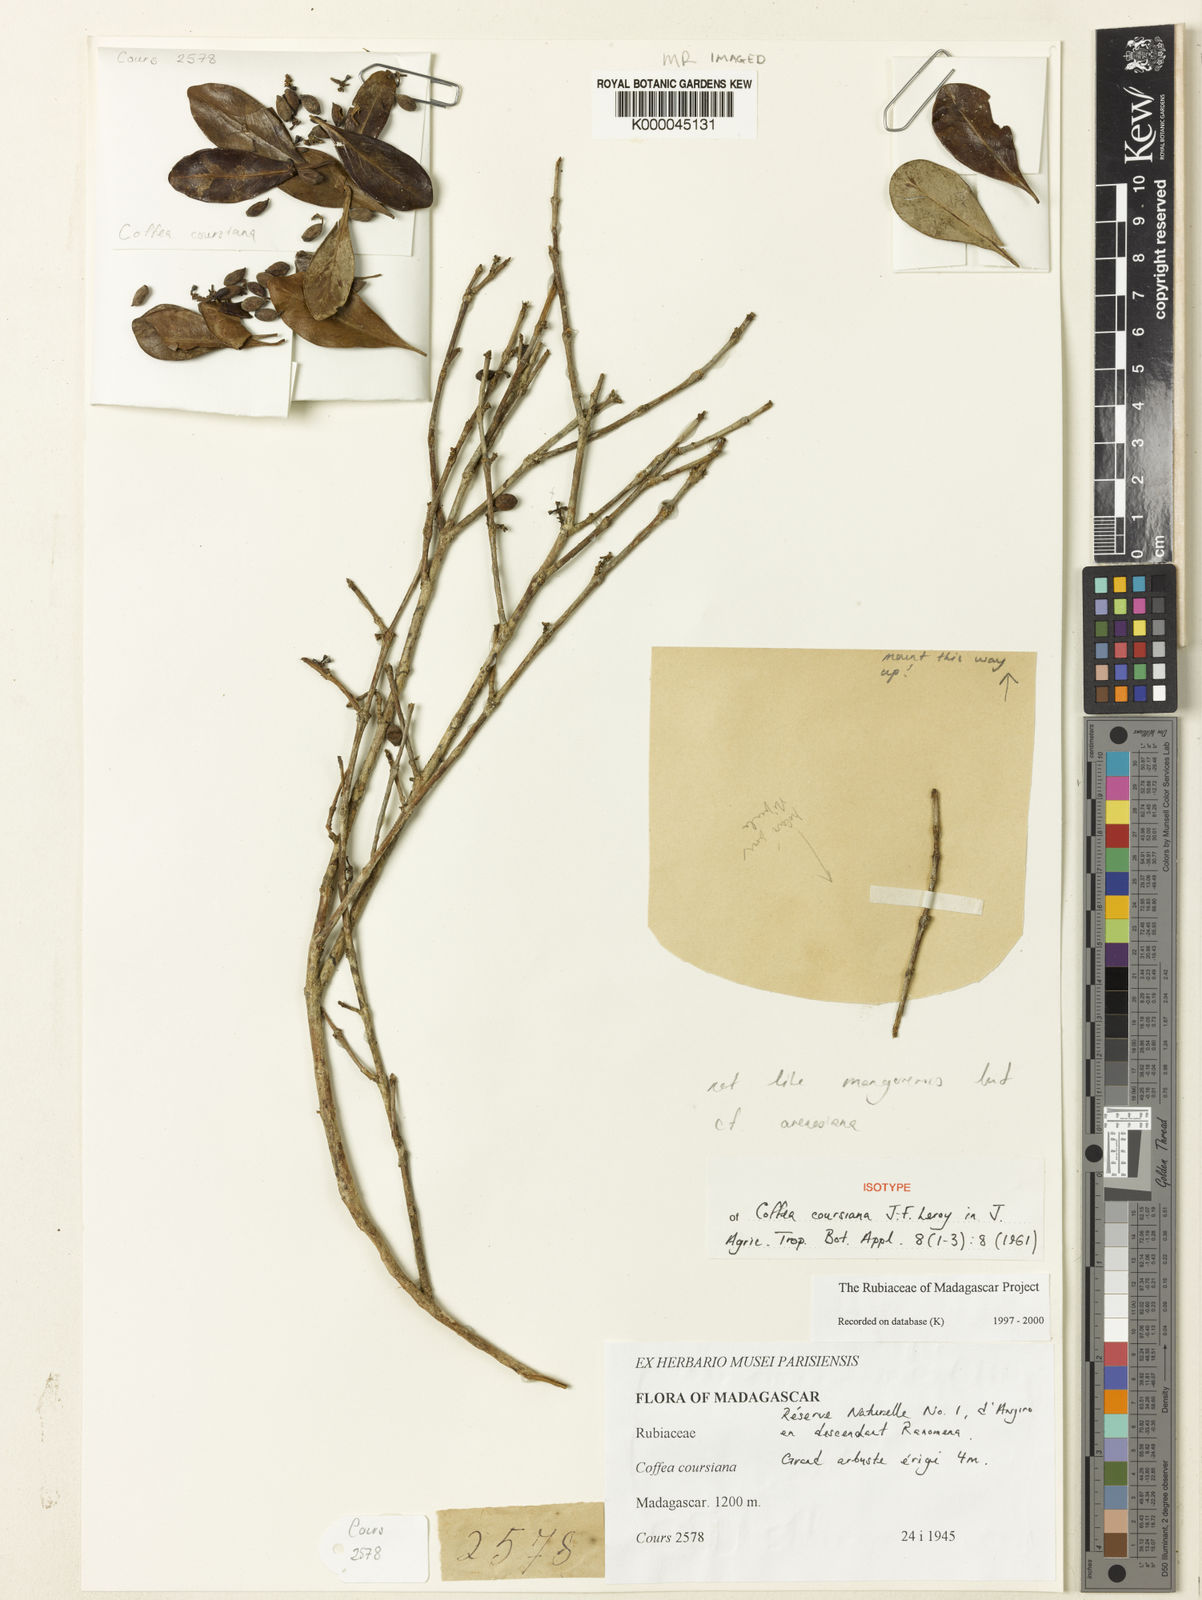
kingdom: Plantae
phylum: Tracheophyta
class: Magnoliopsida
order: Gentianales
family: Rubiaceae
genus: Coffea
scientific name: Coffea coursiana
